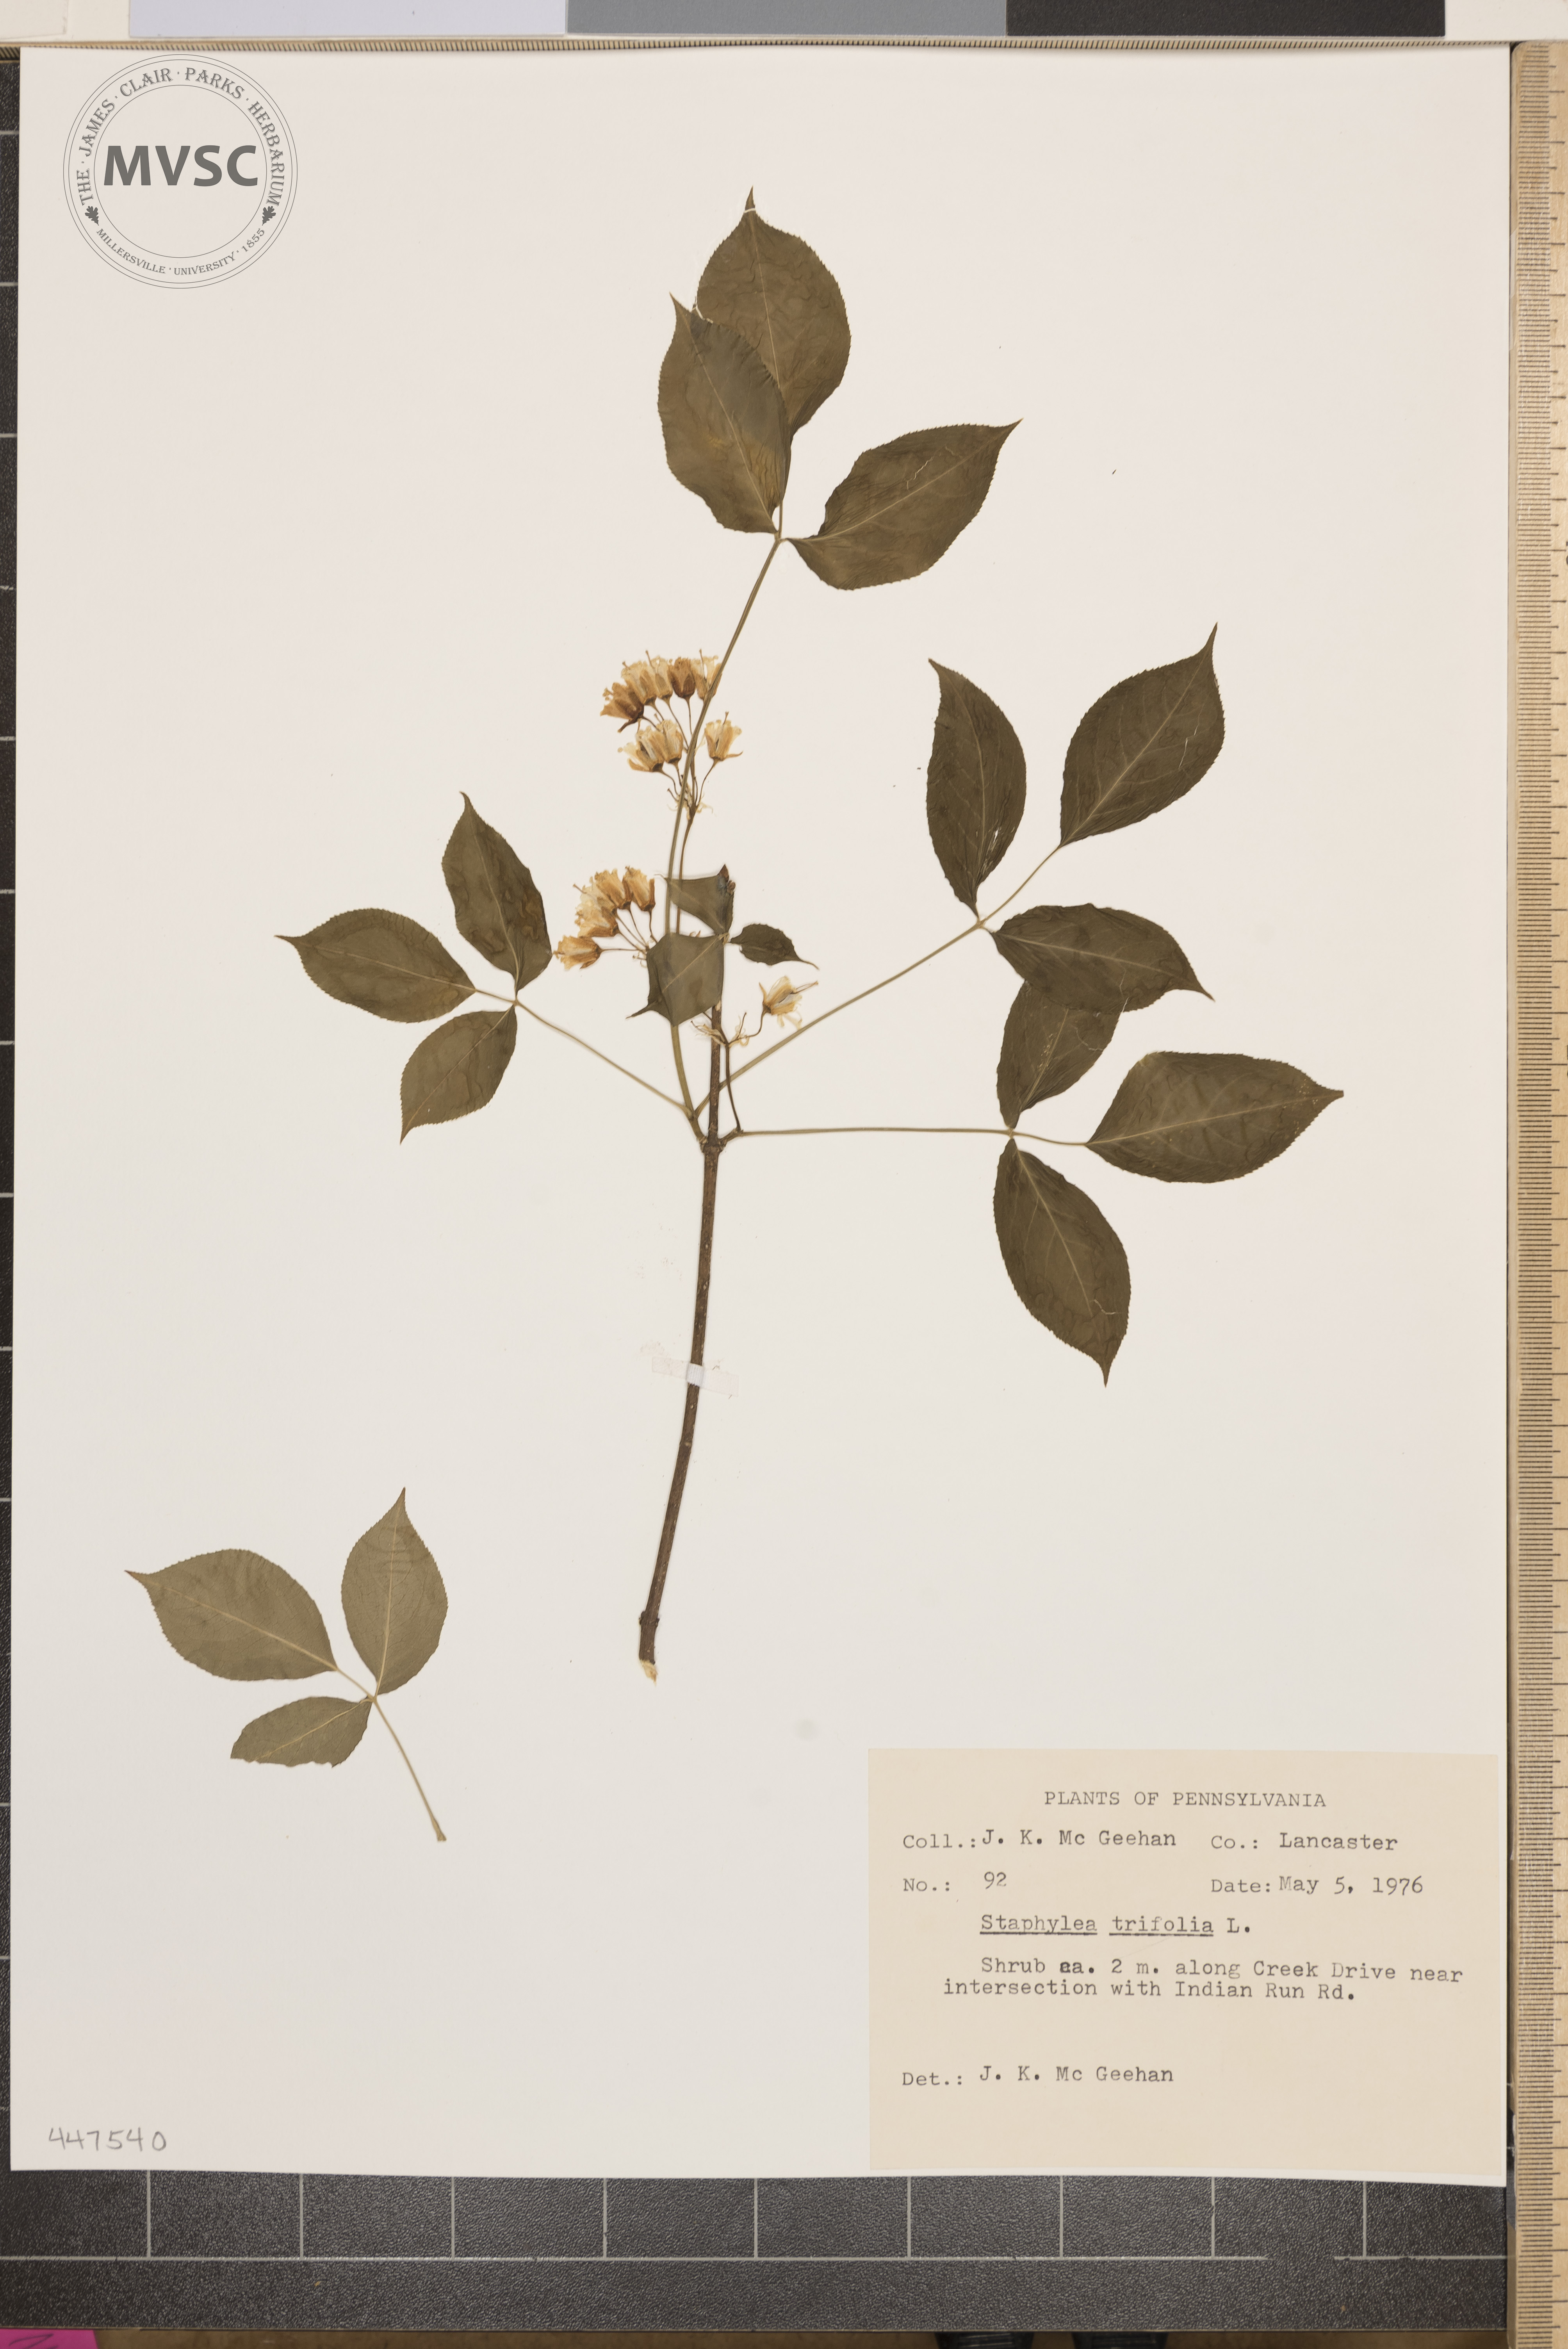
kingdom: Plantae
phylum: Tracheophyta
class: Magnoliopsida
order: Crossosomatales
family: Staphyleaceae
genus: Staphylea
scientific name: Staphylea trifolia
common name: American bladdernut
